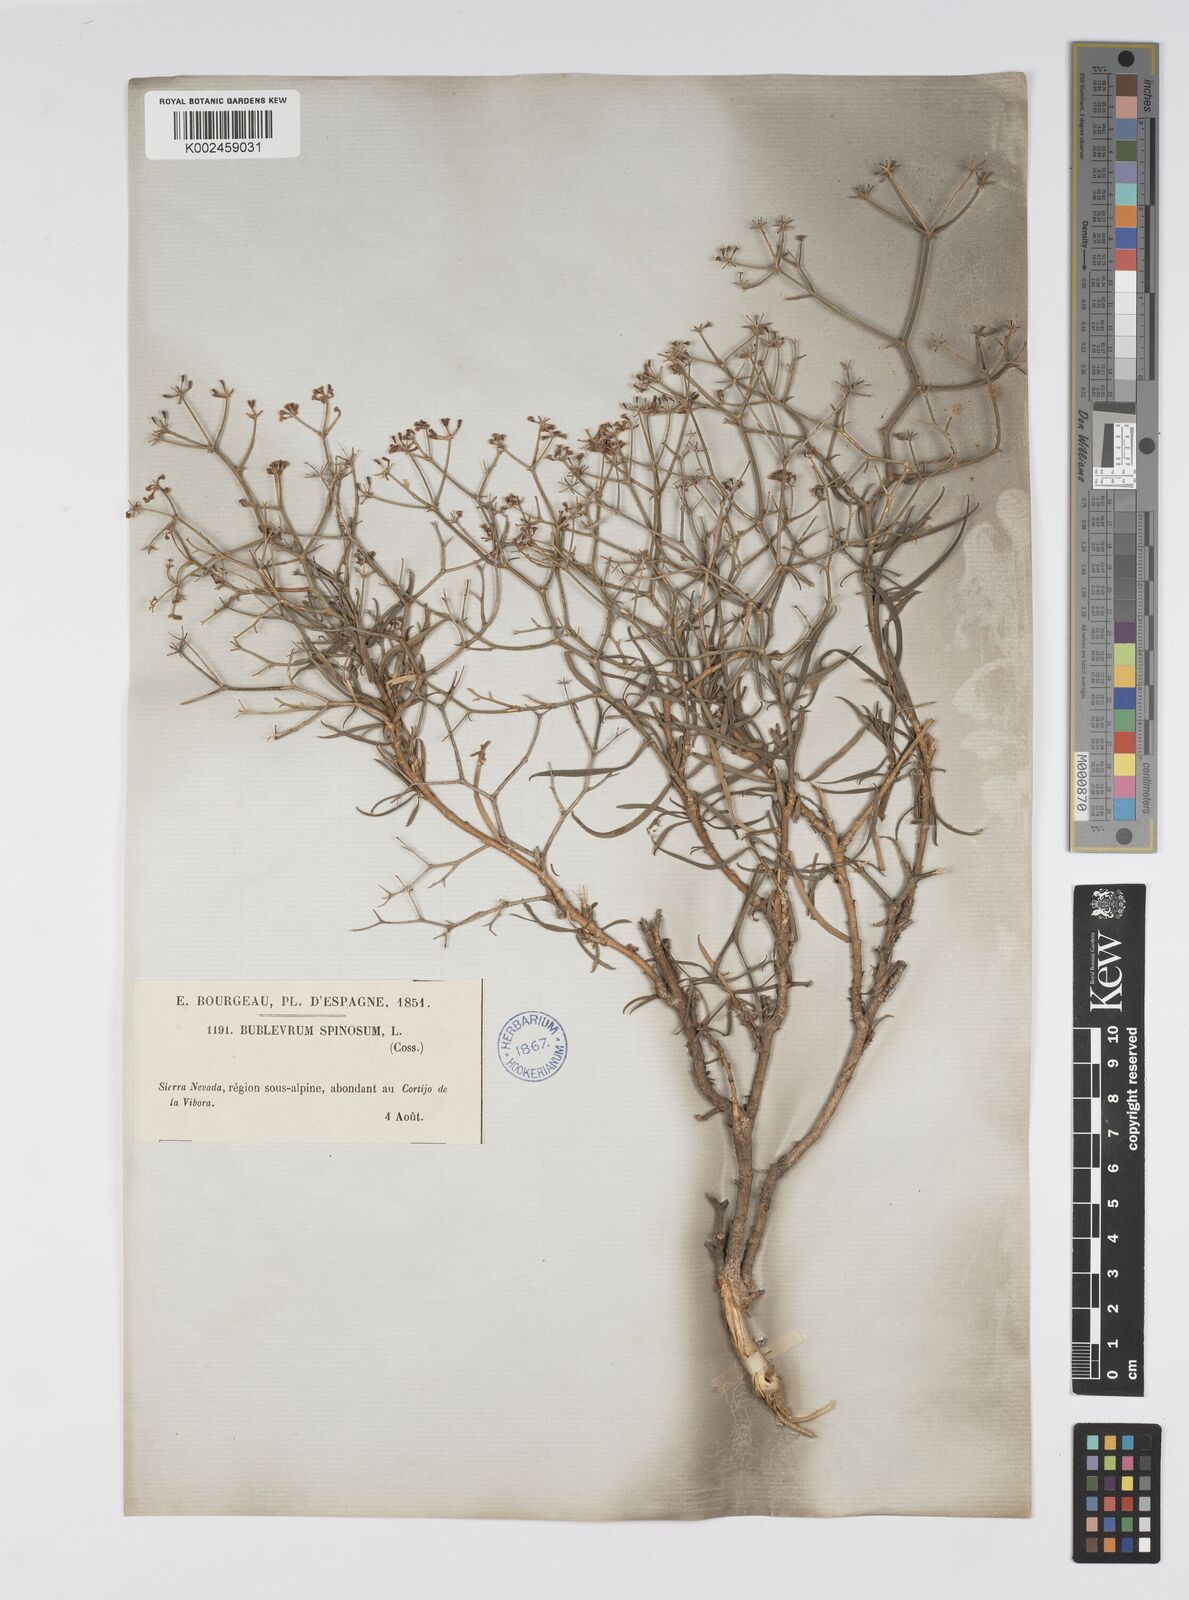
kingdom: Plantae
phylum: Tracheophyta
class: Magnoliopsida
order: Apiales
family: Apiaceae
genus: Bupleurum
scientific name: Bupleurum fruticescens
